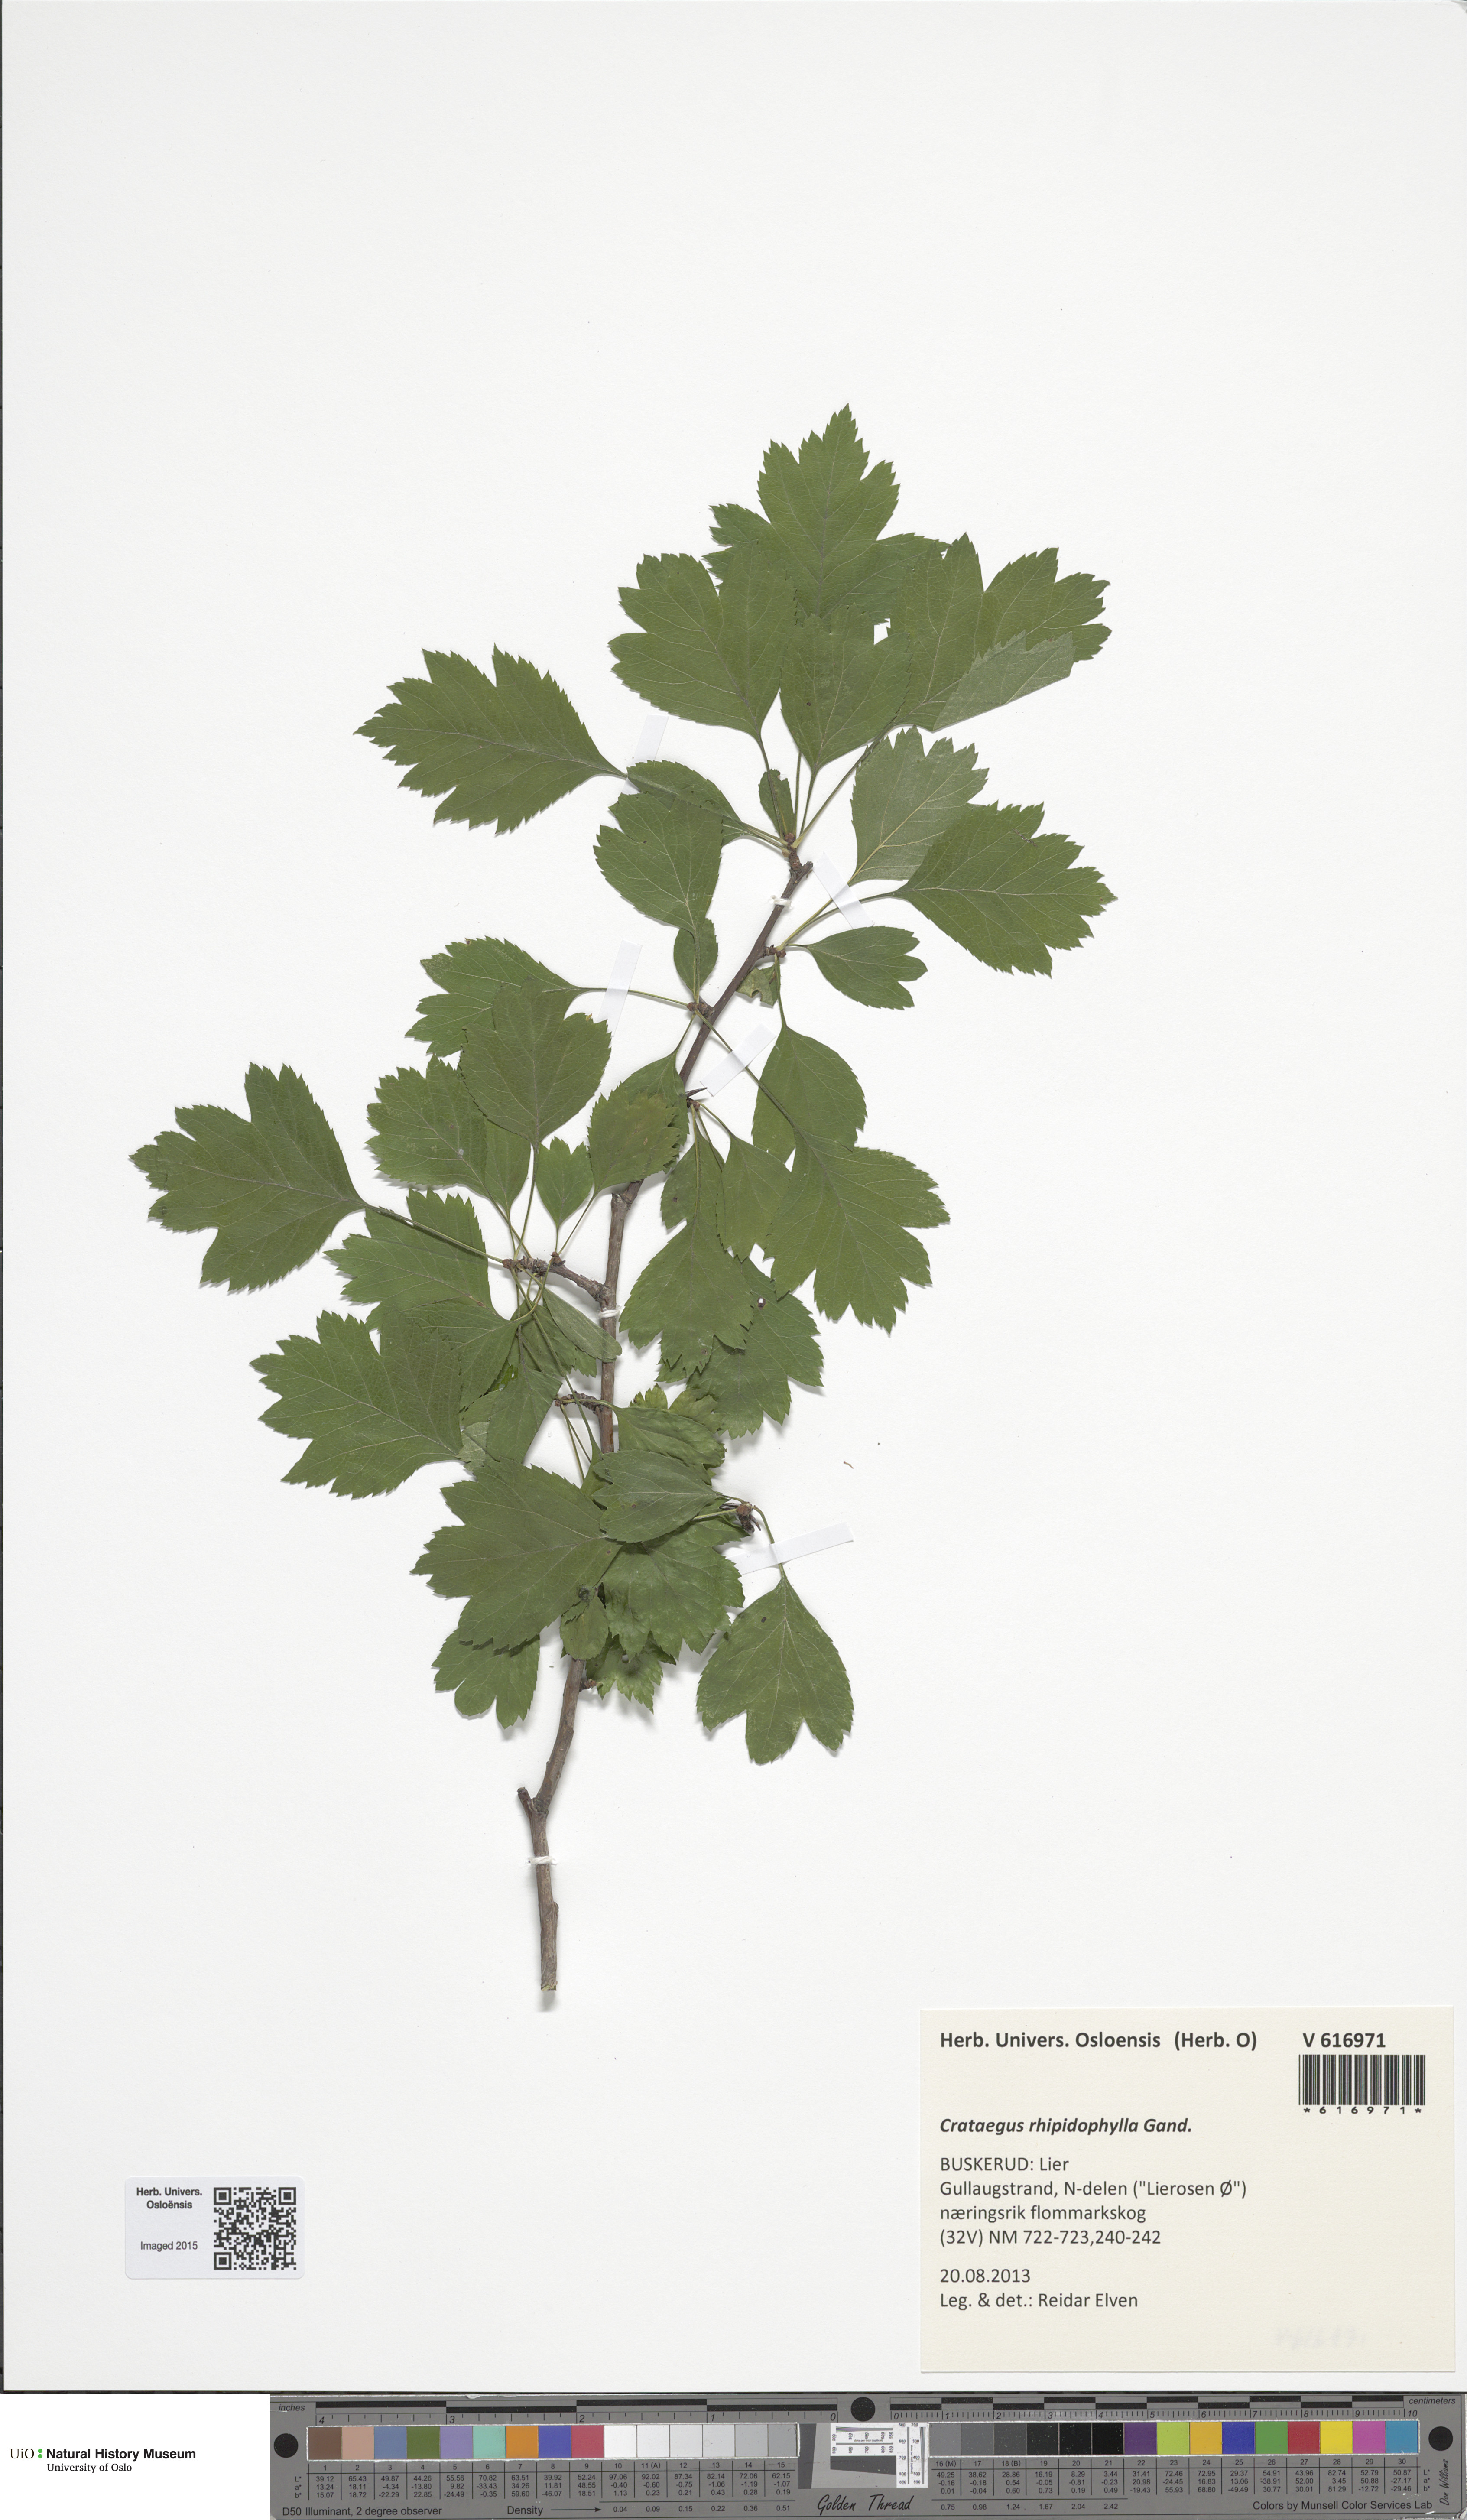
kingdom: Plantae
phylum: Tracheophyta
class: Magnoliopsida
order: Rosales
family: Rosaceae
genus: Crataegus
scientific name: Crataegus rhipidophylla
